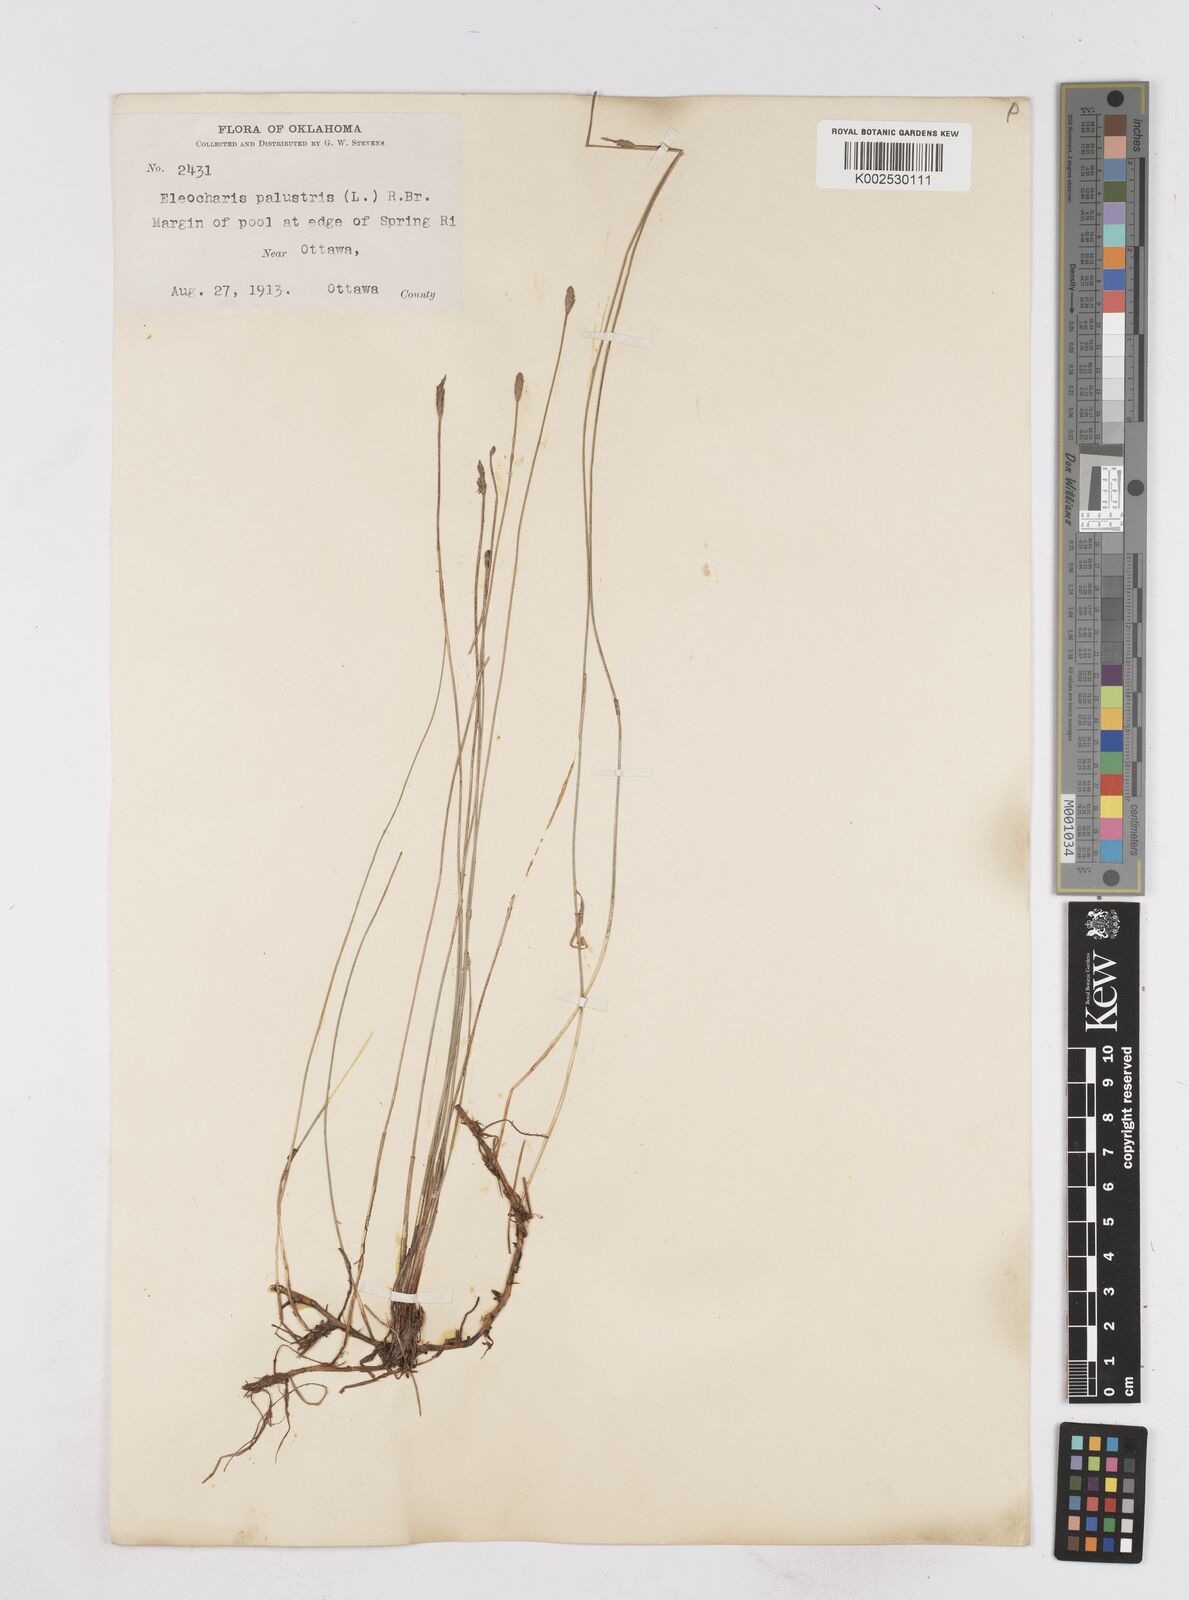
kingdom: Plantae
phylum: Tracheophyta
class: Liliopsida
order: Poales
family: Cyperaceae
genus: Eleocharis
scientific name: Eleocharis palustris
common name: Common spike-rush
